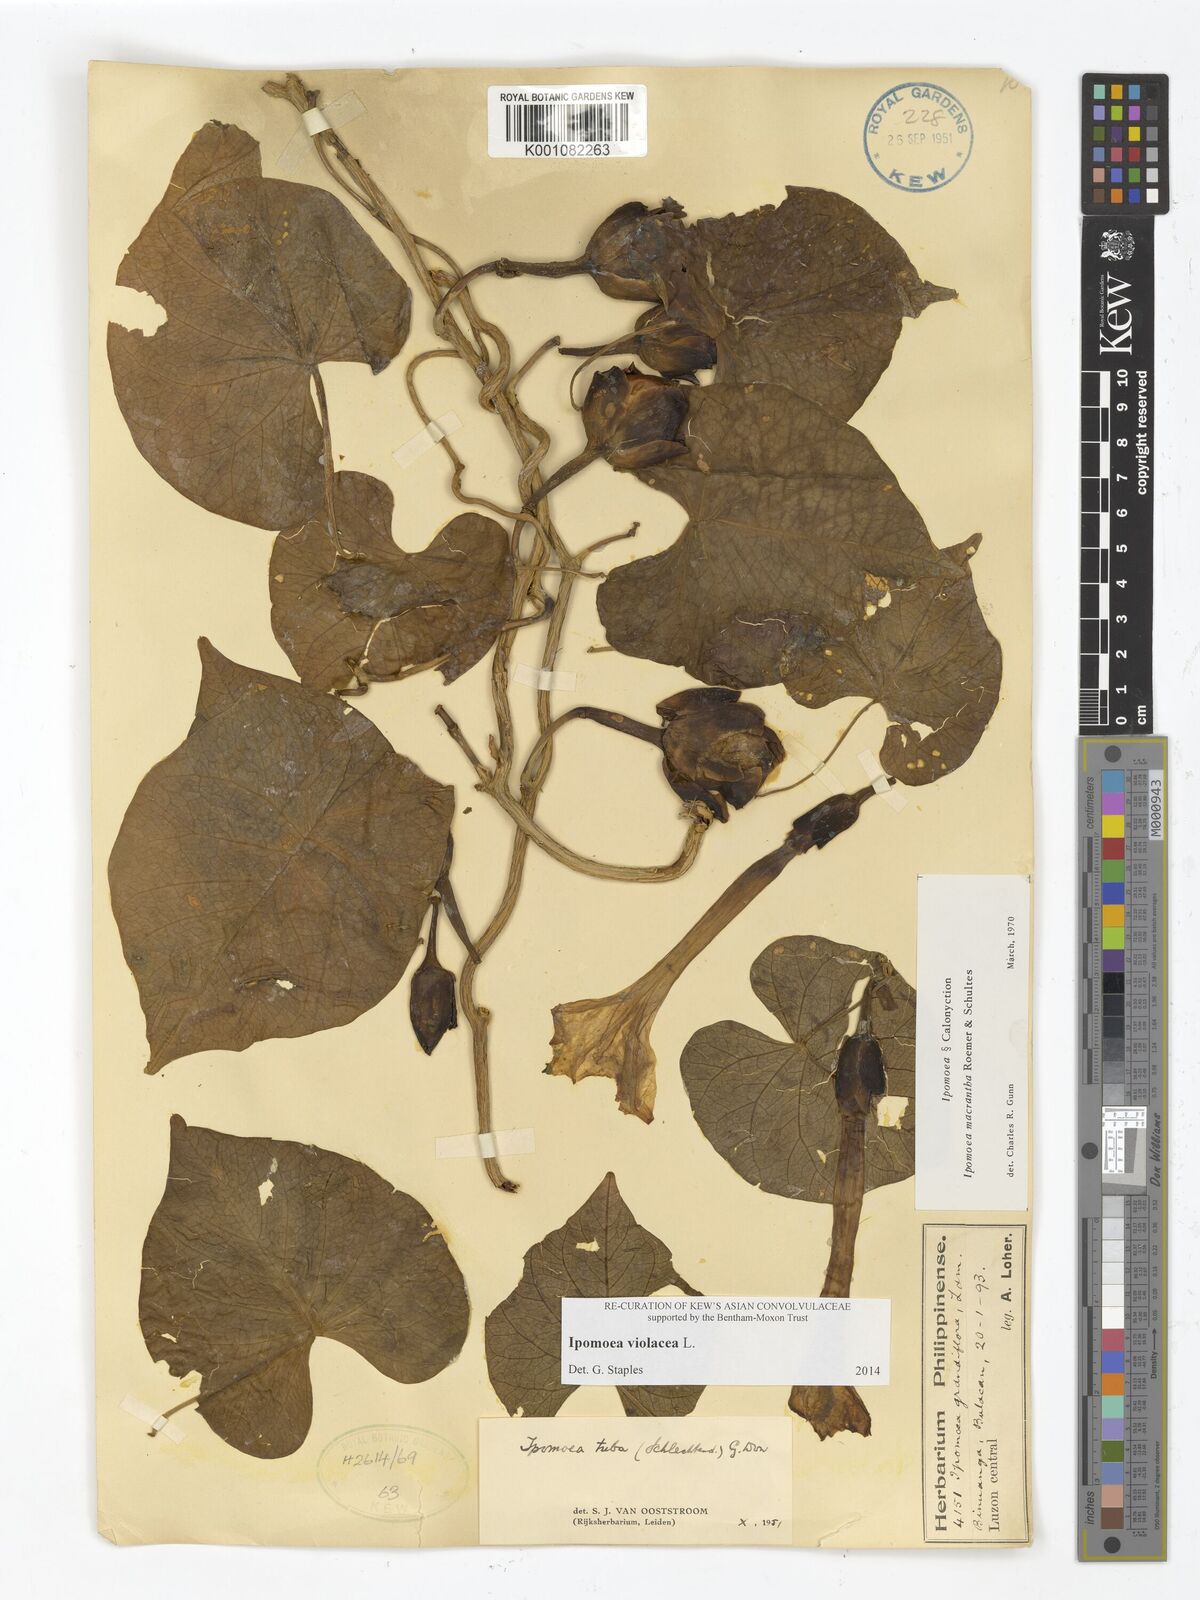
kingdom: Plantae
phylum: Tracheophyta
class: Magnoliopsida
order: Solanales
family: Convolvulaceae
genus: Ipomoea
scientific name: Ipomoea violacea
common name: Beach moonflower
